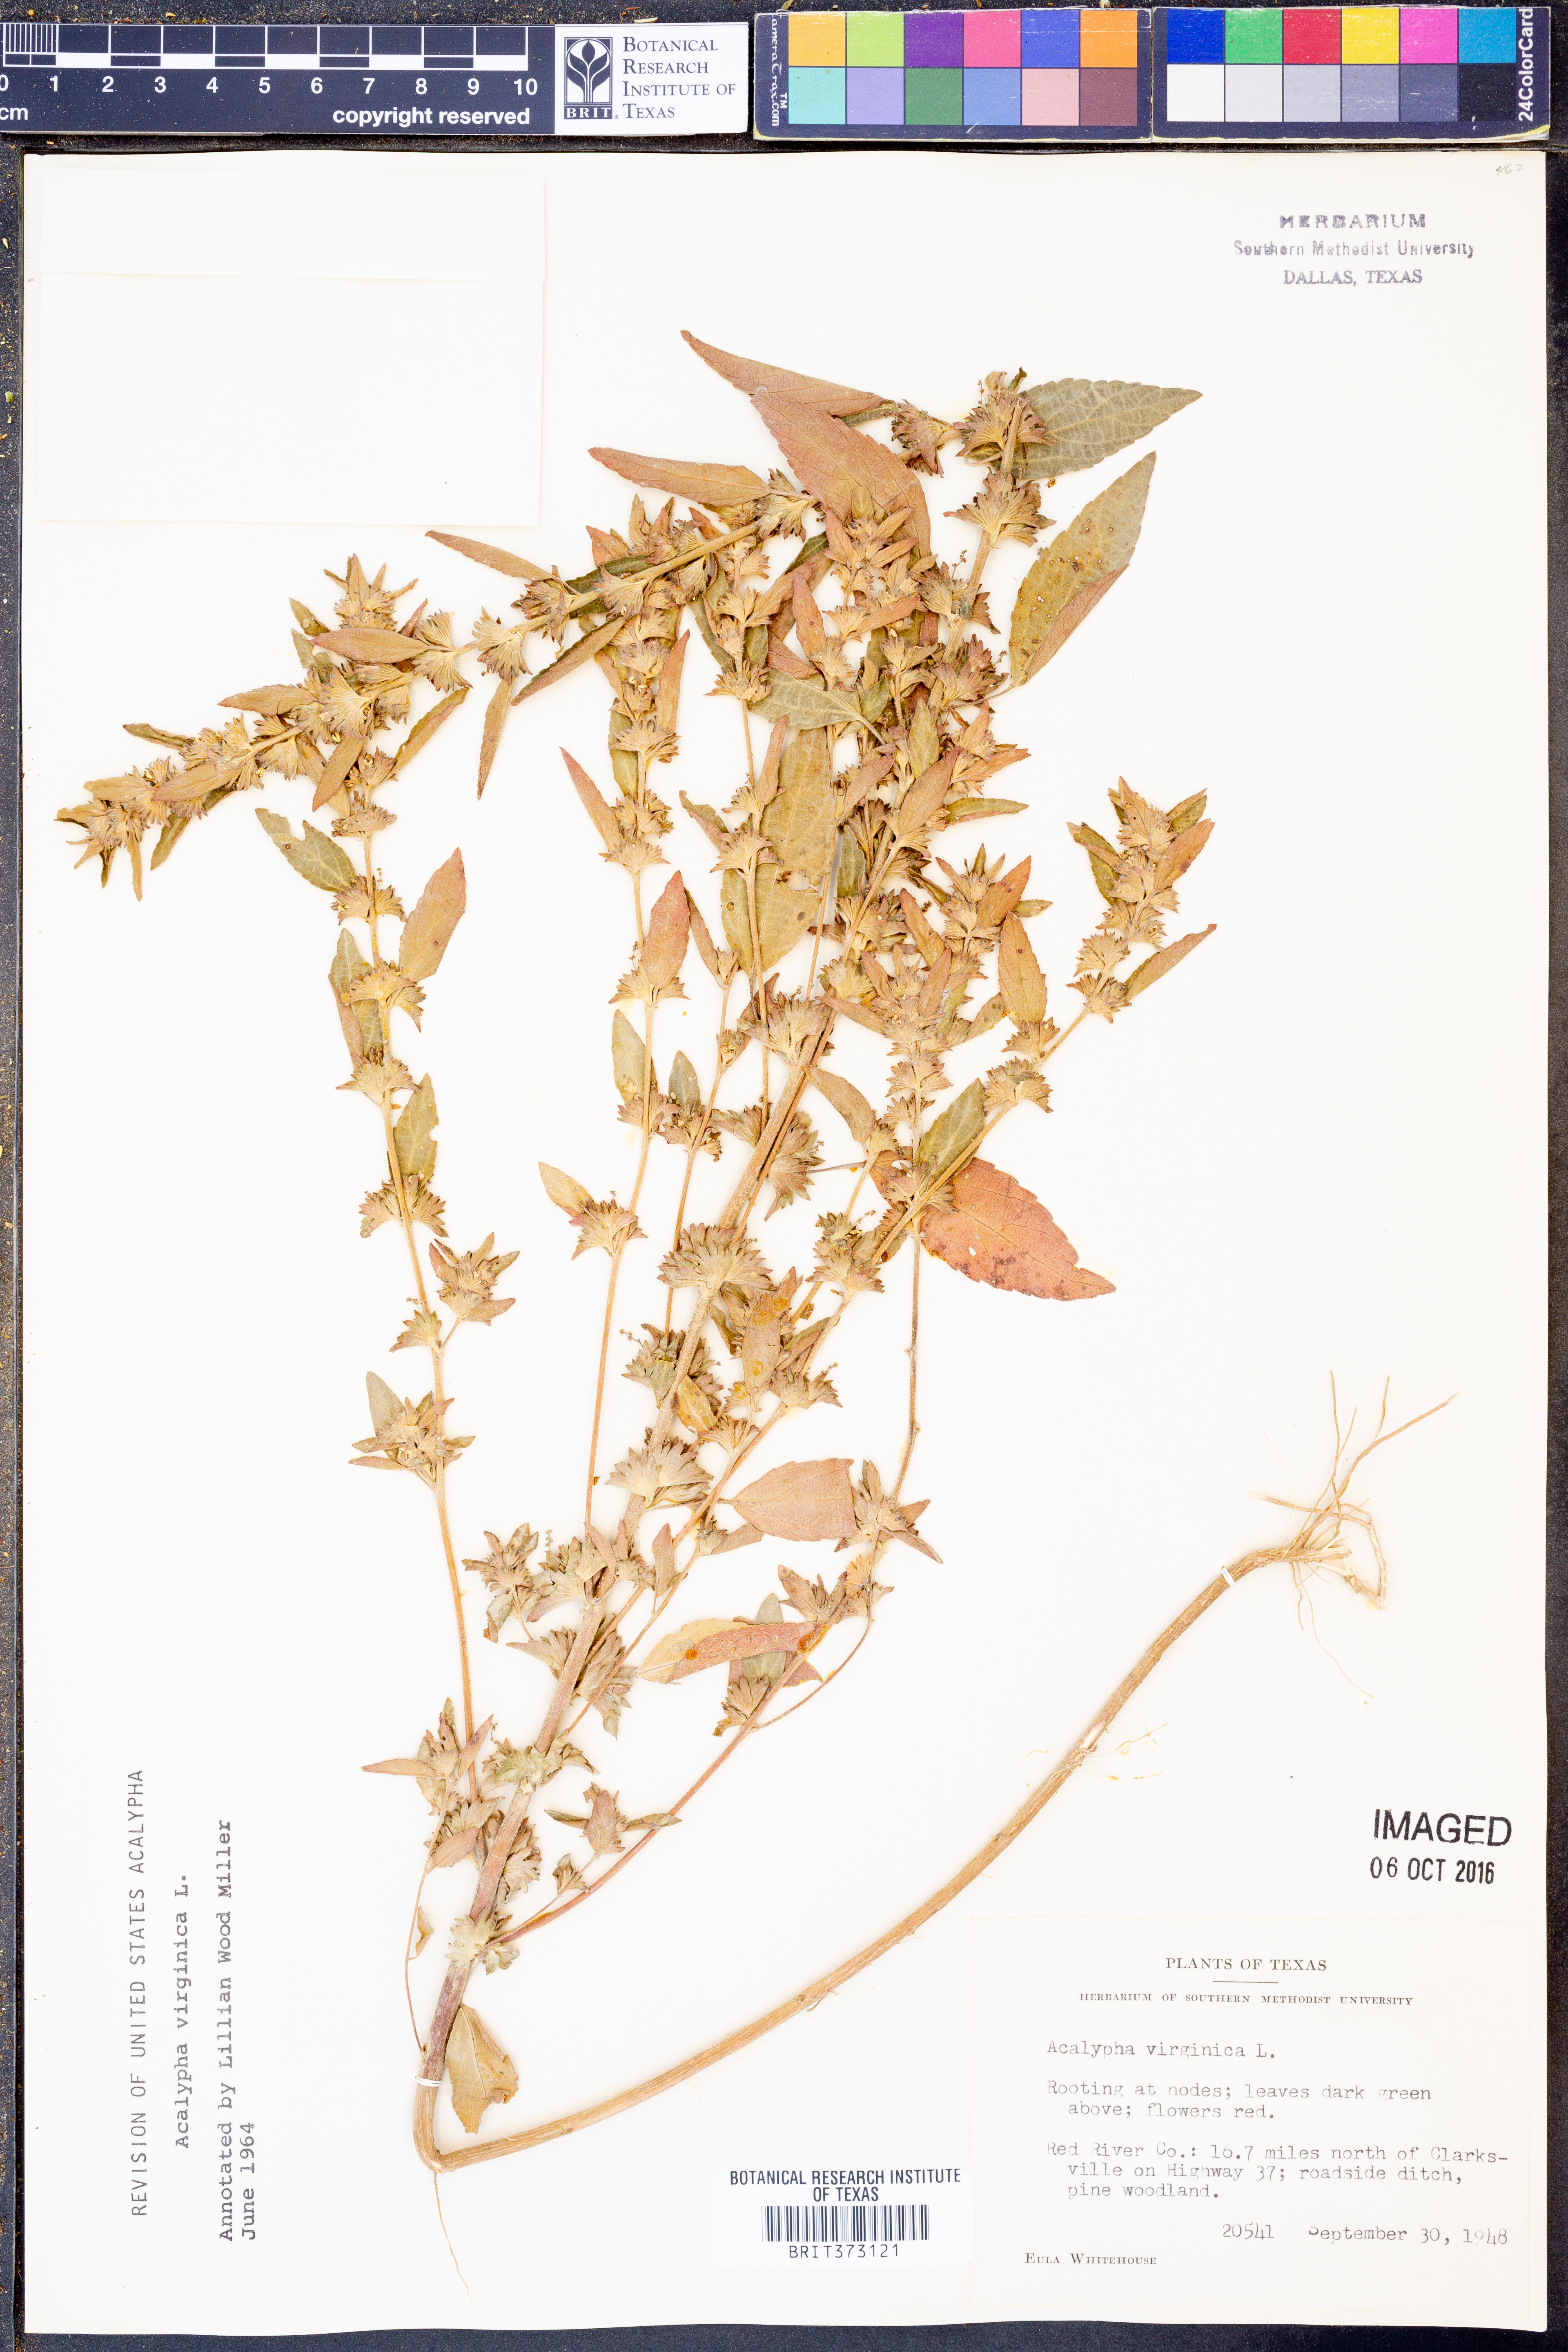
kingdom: Plantae
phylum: Tracheophyta
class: Magnoliopsida
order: Malpighiales
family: Euphorbiaceae
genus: Acalypha
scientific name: Acalypha virginica
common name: Virginia copperleaf
